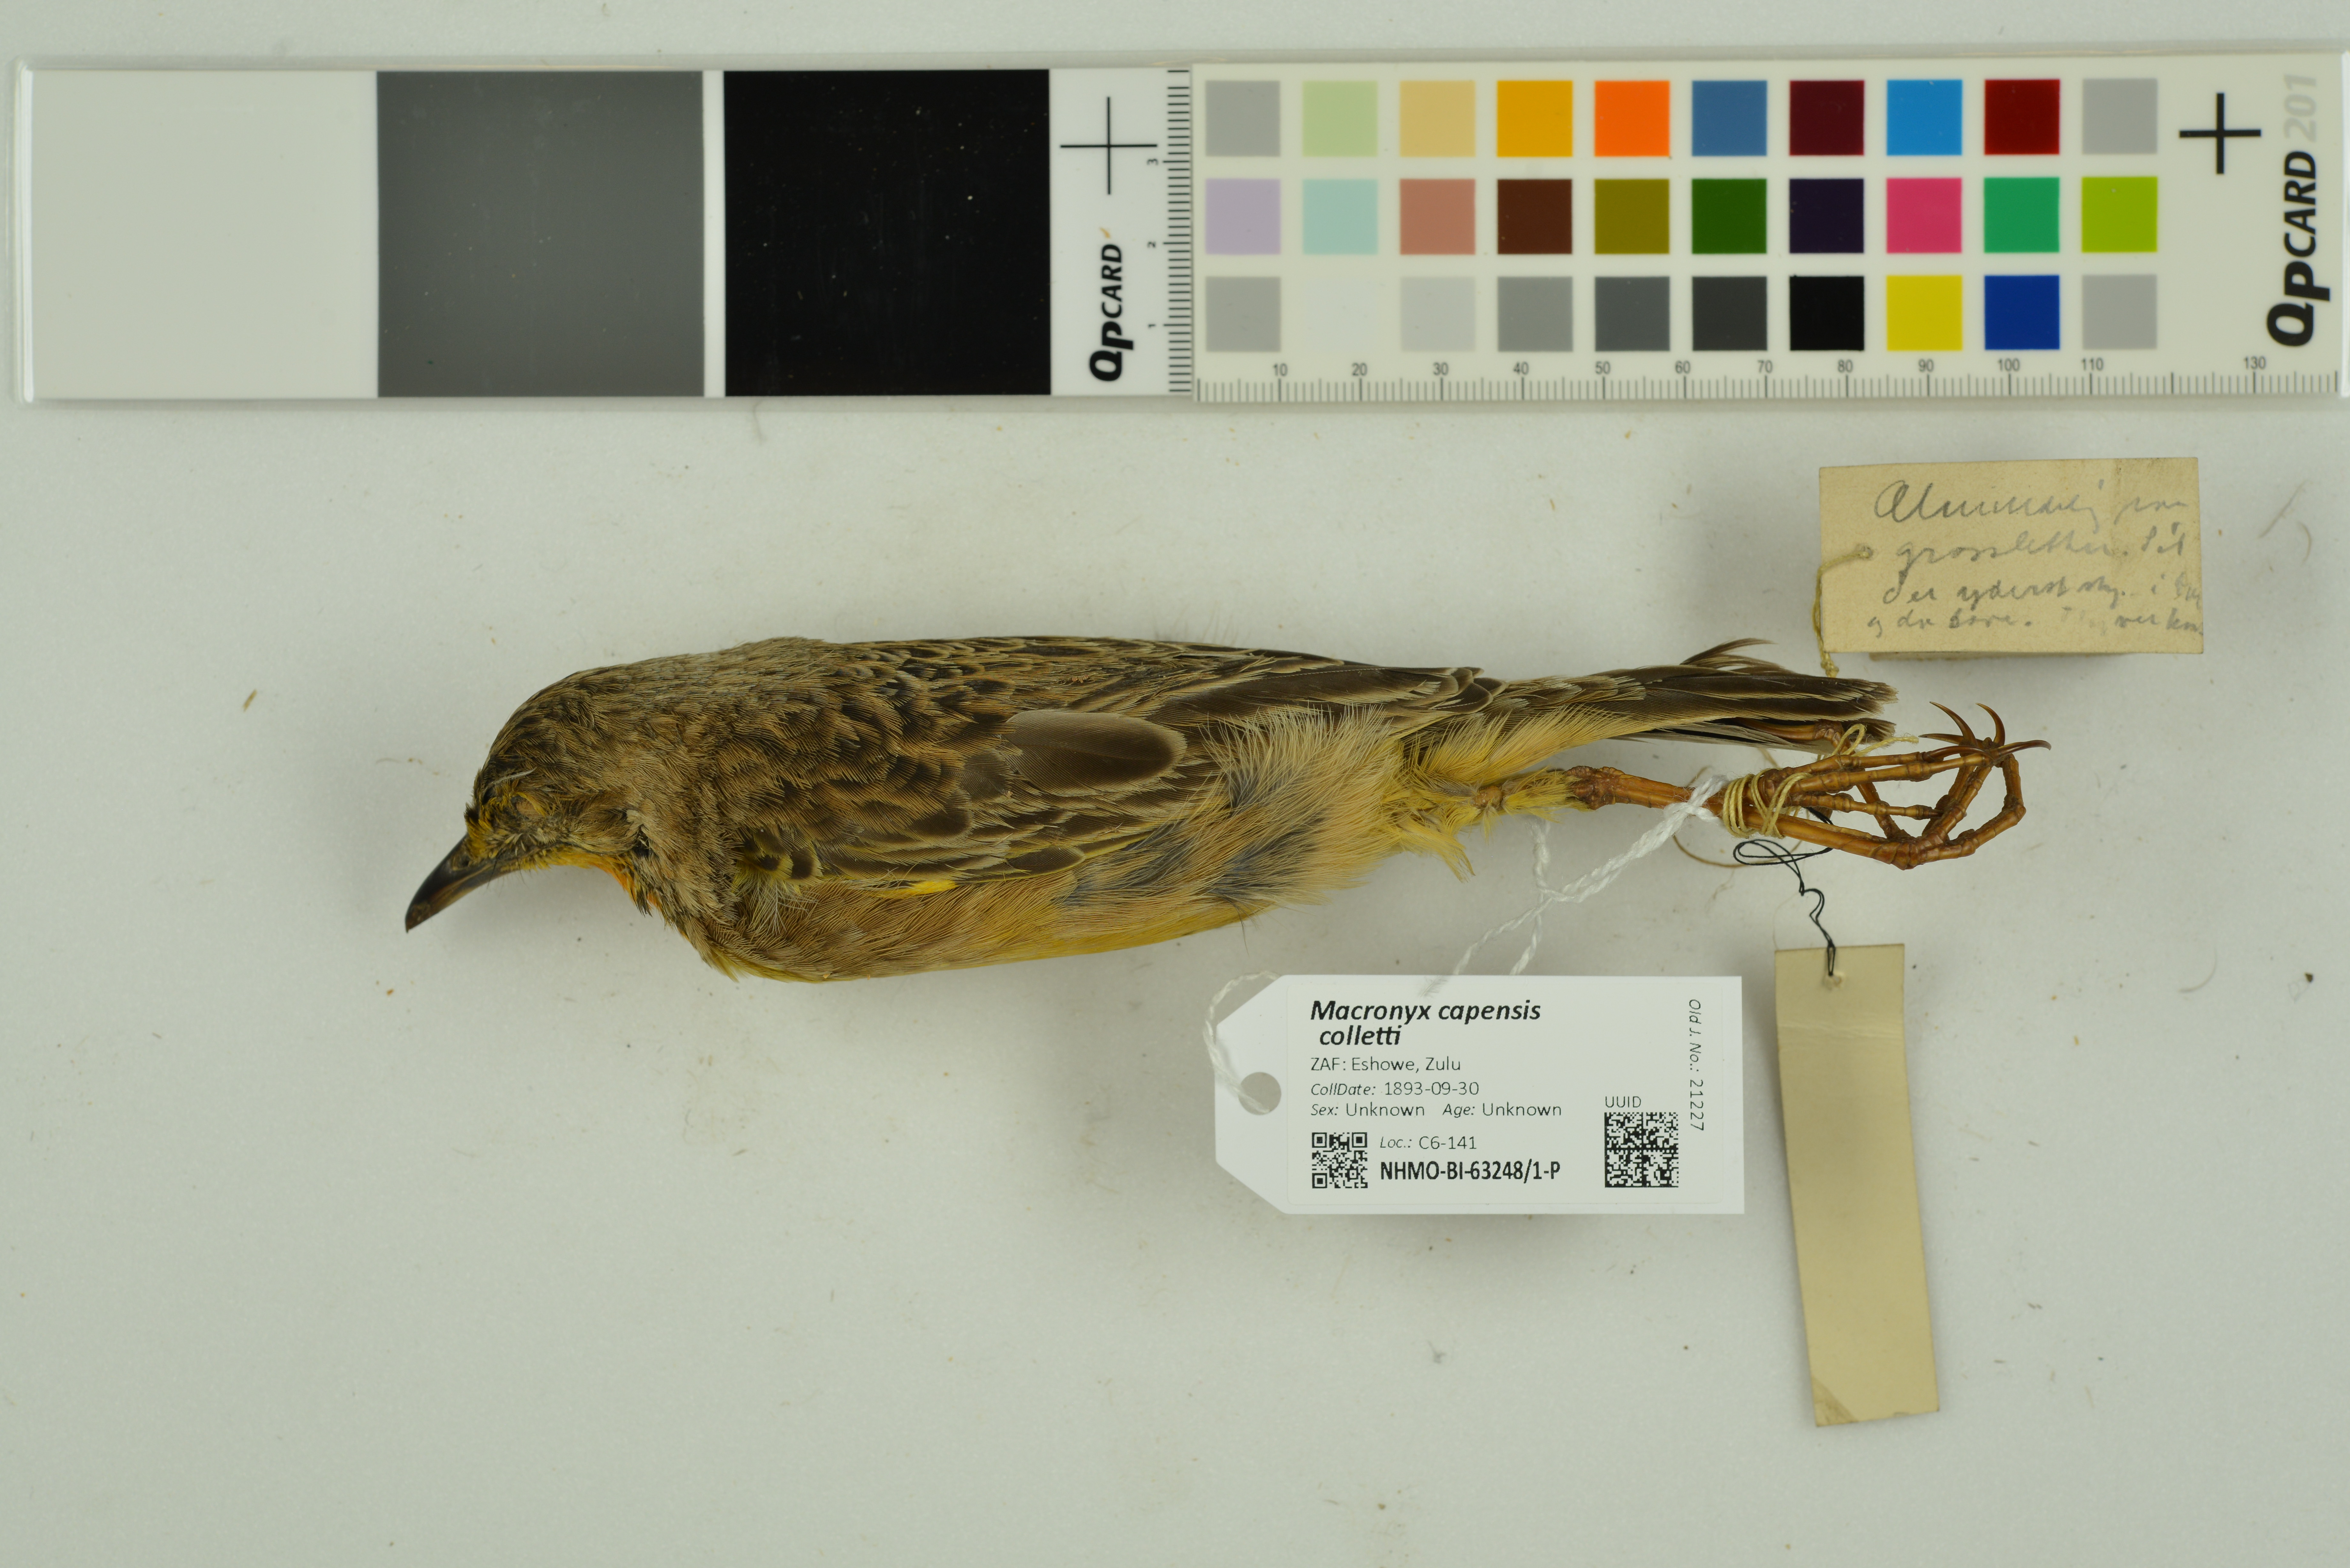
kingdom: Animalia
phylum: Chordata
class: Aves
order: Passeriformes
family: Motacillidae
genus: Macronyx
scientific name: Macronyx capensis
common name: Cape longclaw
